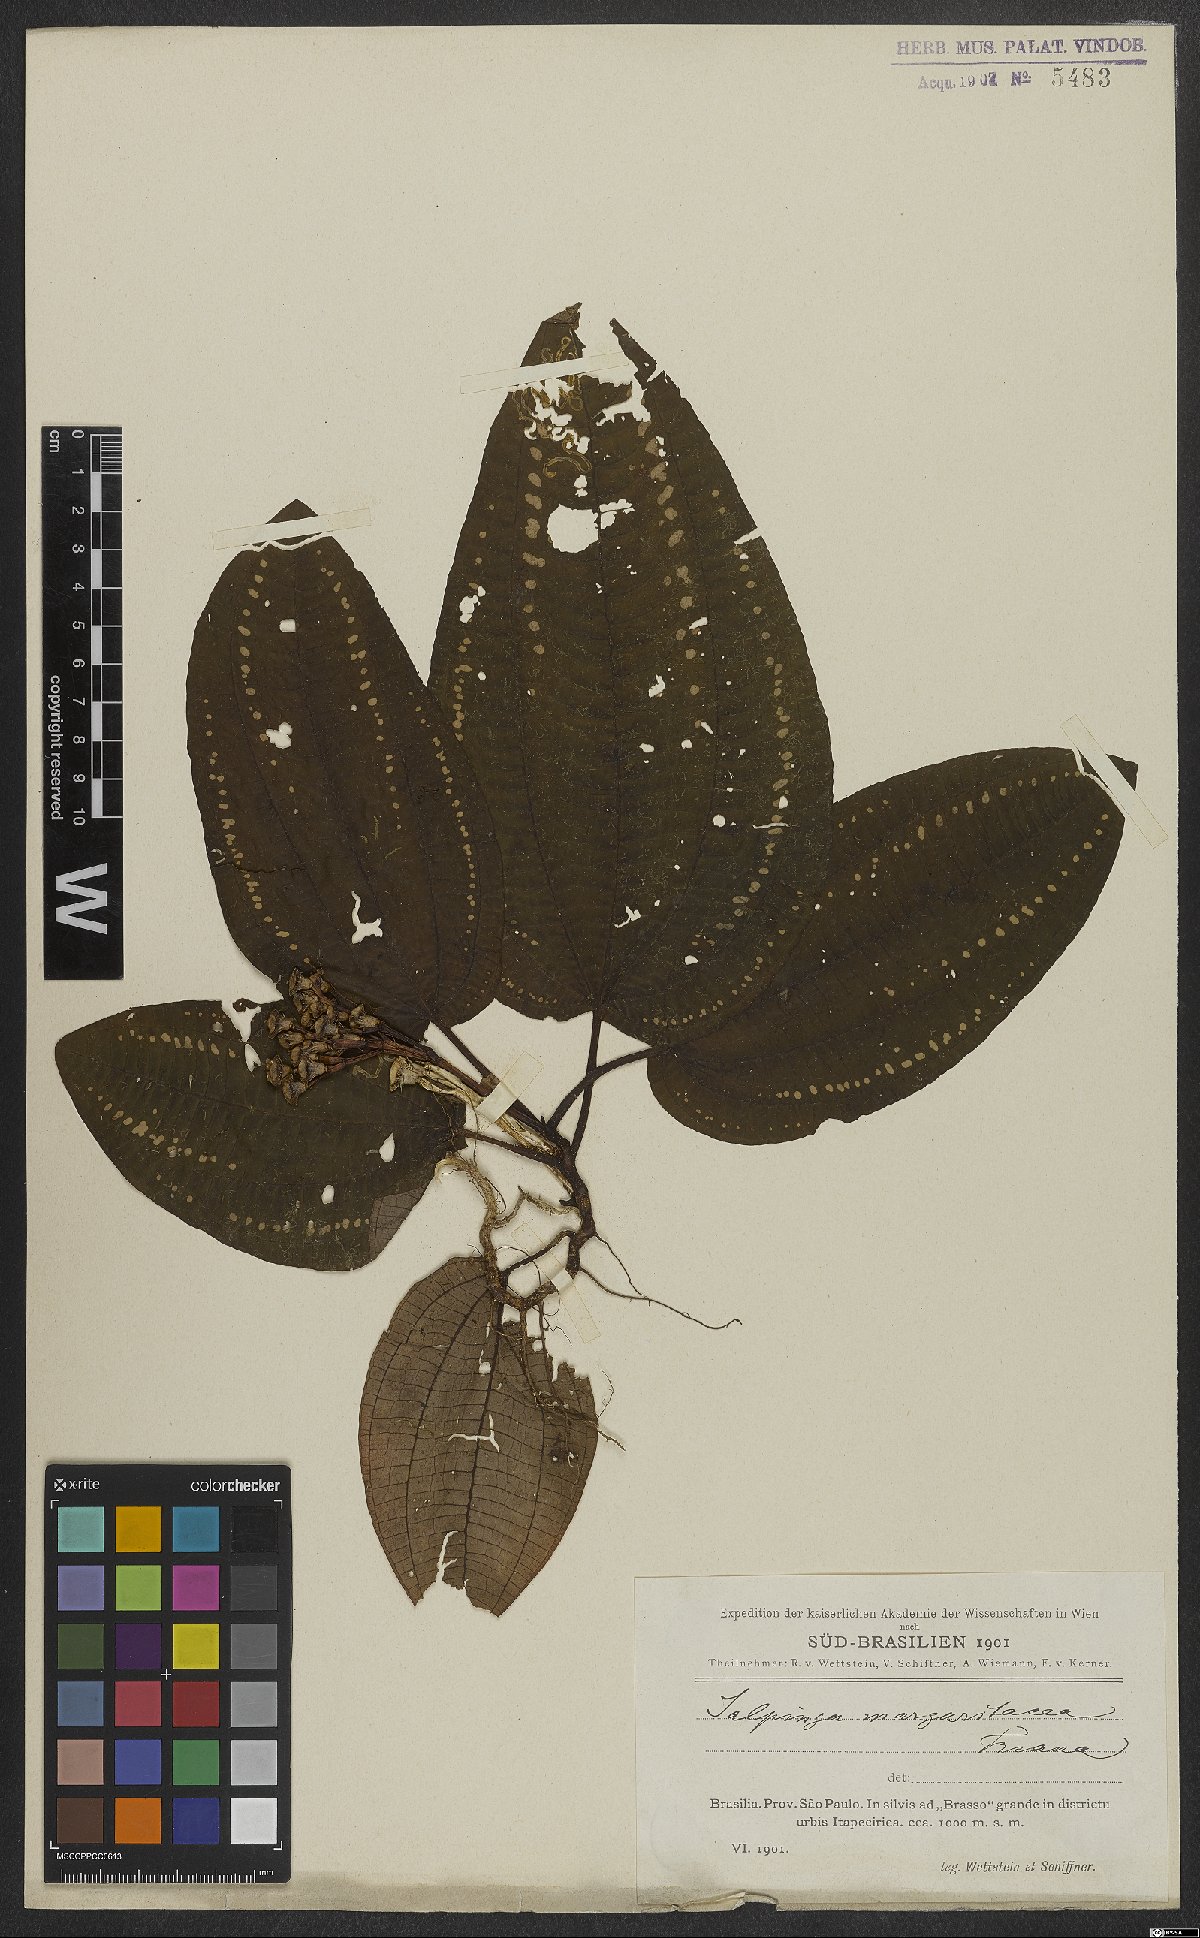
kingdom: Plantae
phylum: Tracheophyta
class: Magnoliopsida
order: Myrtales
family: Melastomataceae
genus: Salpinga
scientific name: Salpinga margaritacea
